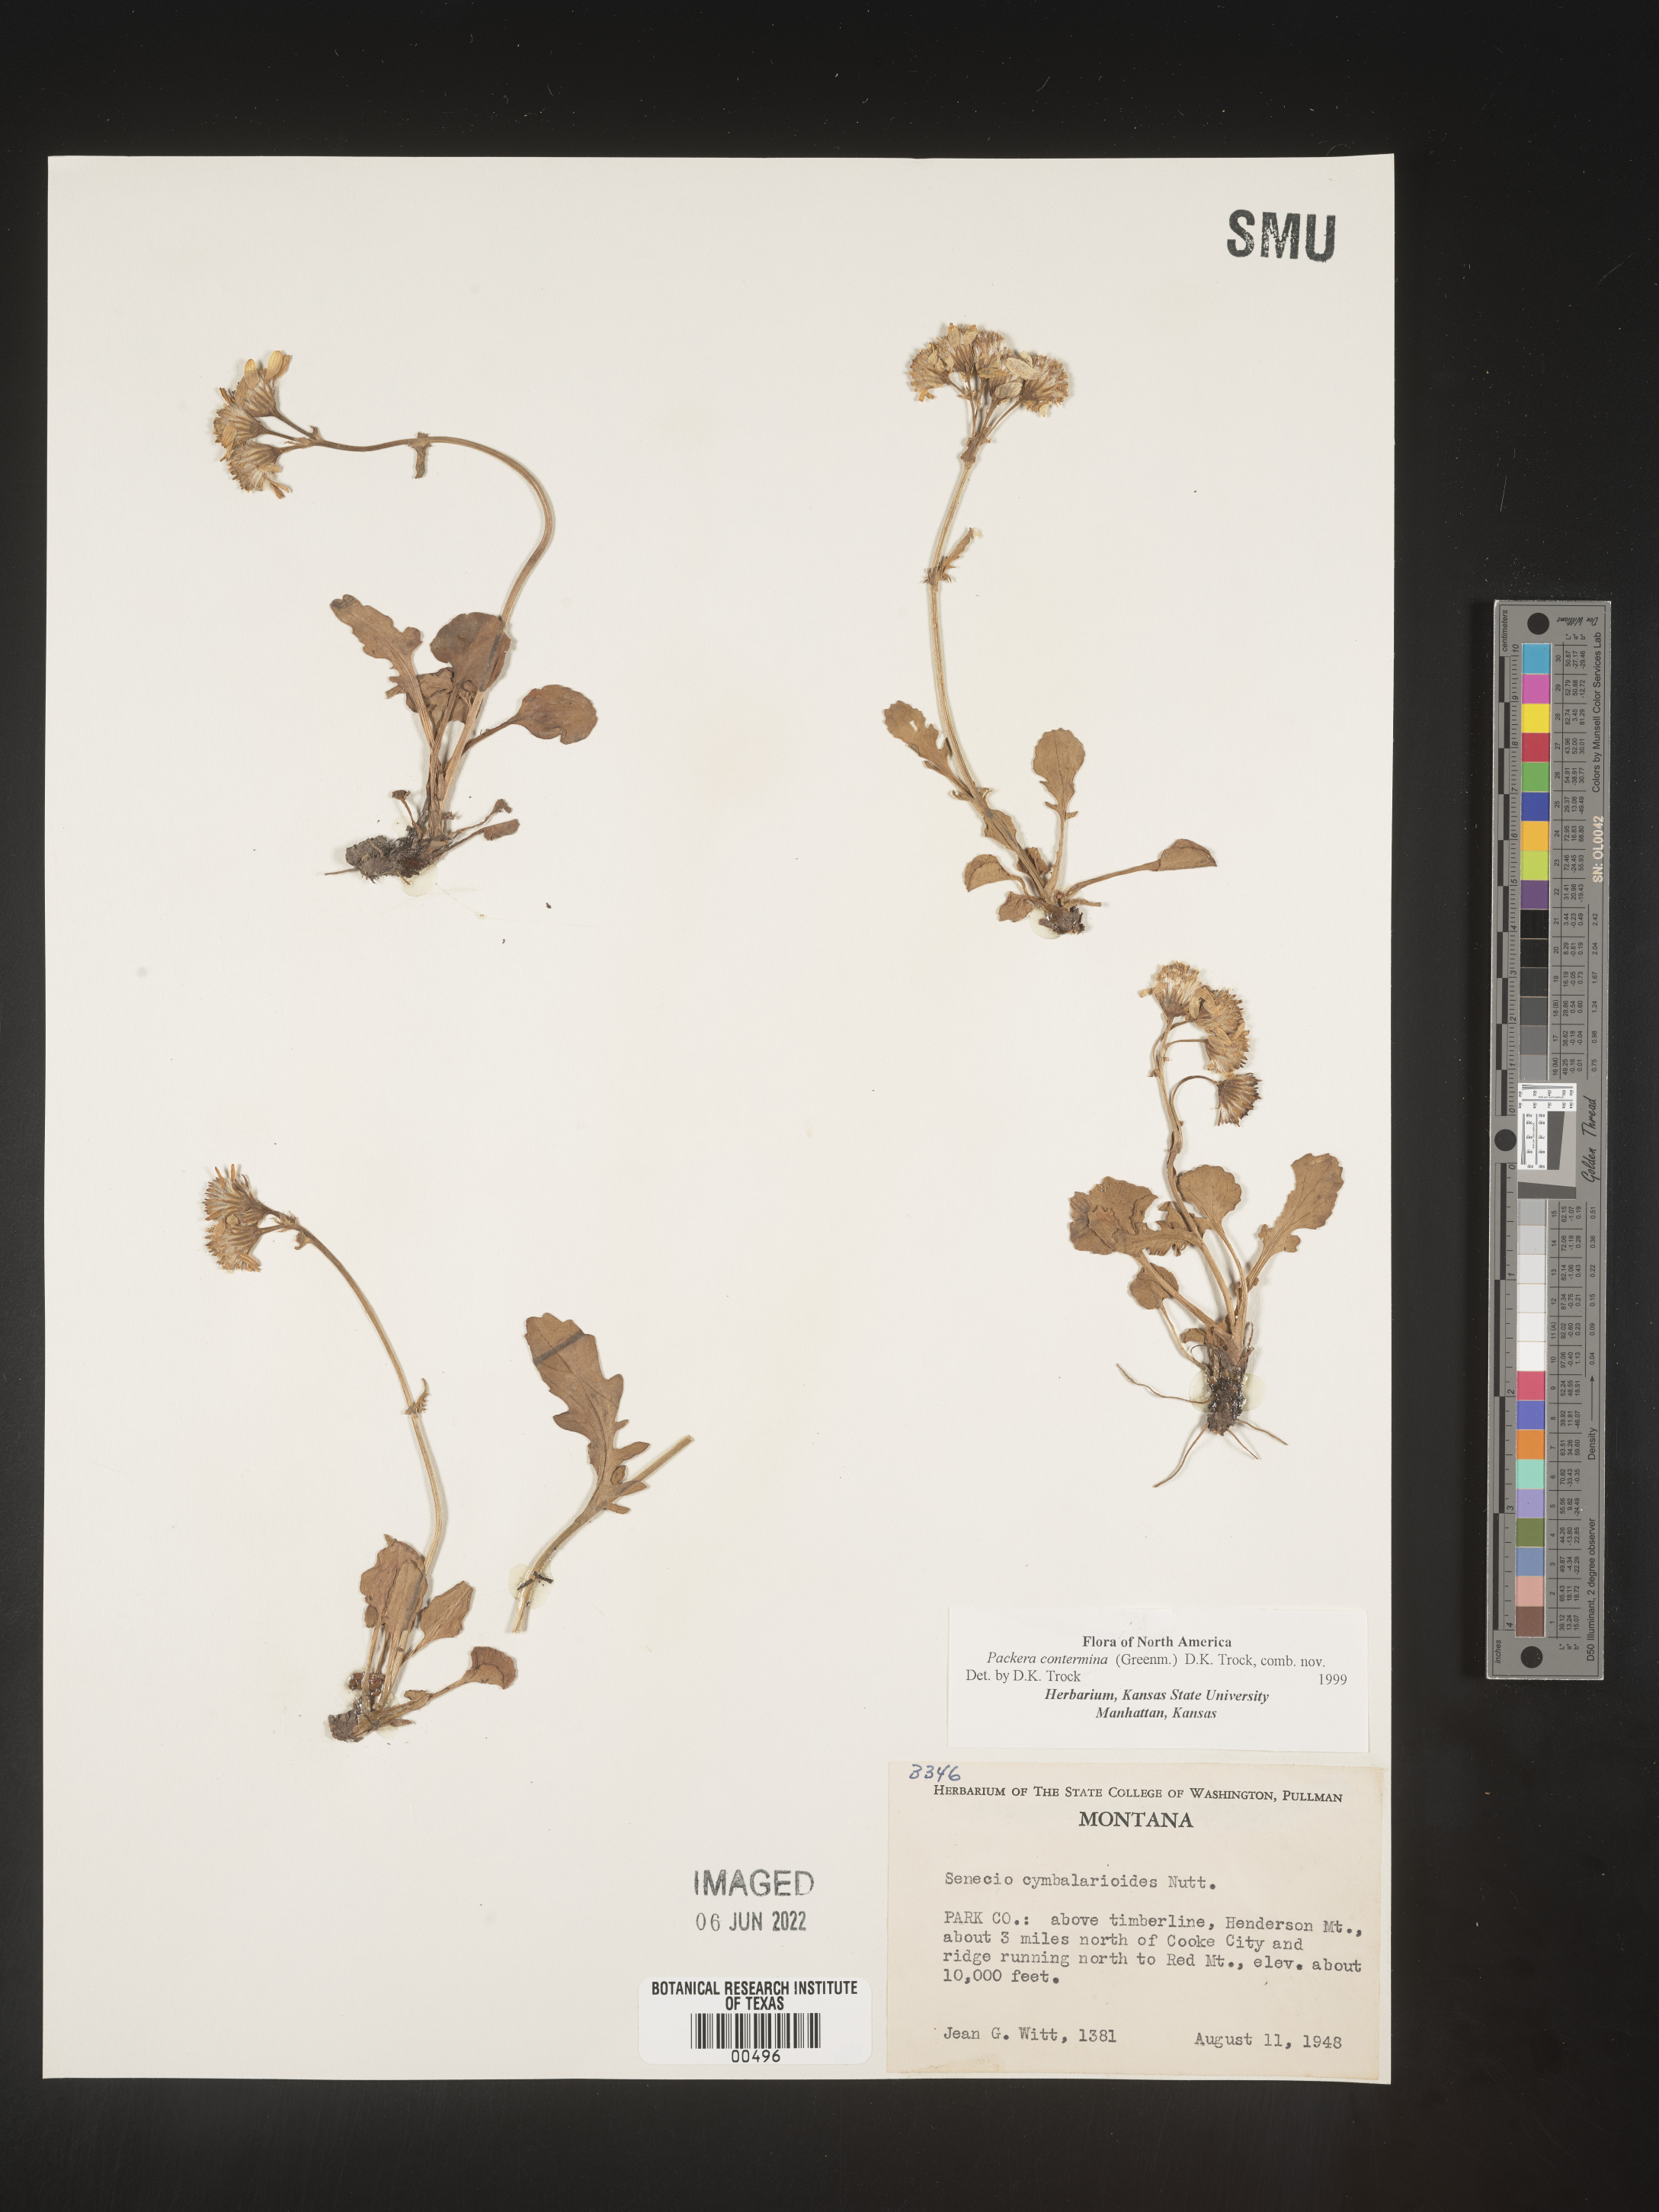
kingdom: Plantae
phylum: Tracheophyta
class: Magnoliopsida
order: Asterales
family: Asteraceae
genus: Packera
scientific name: Packera
